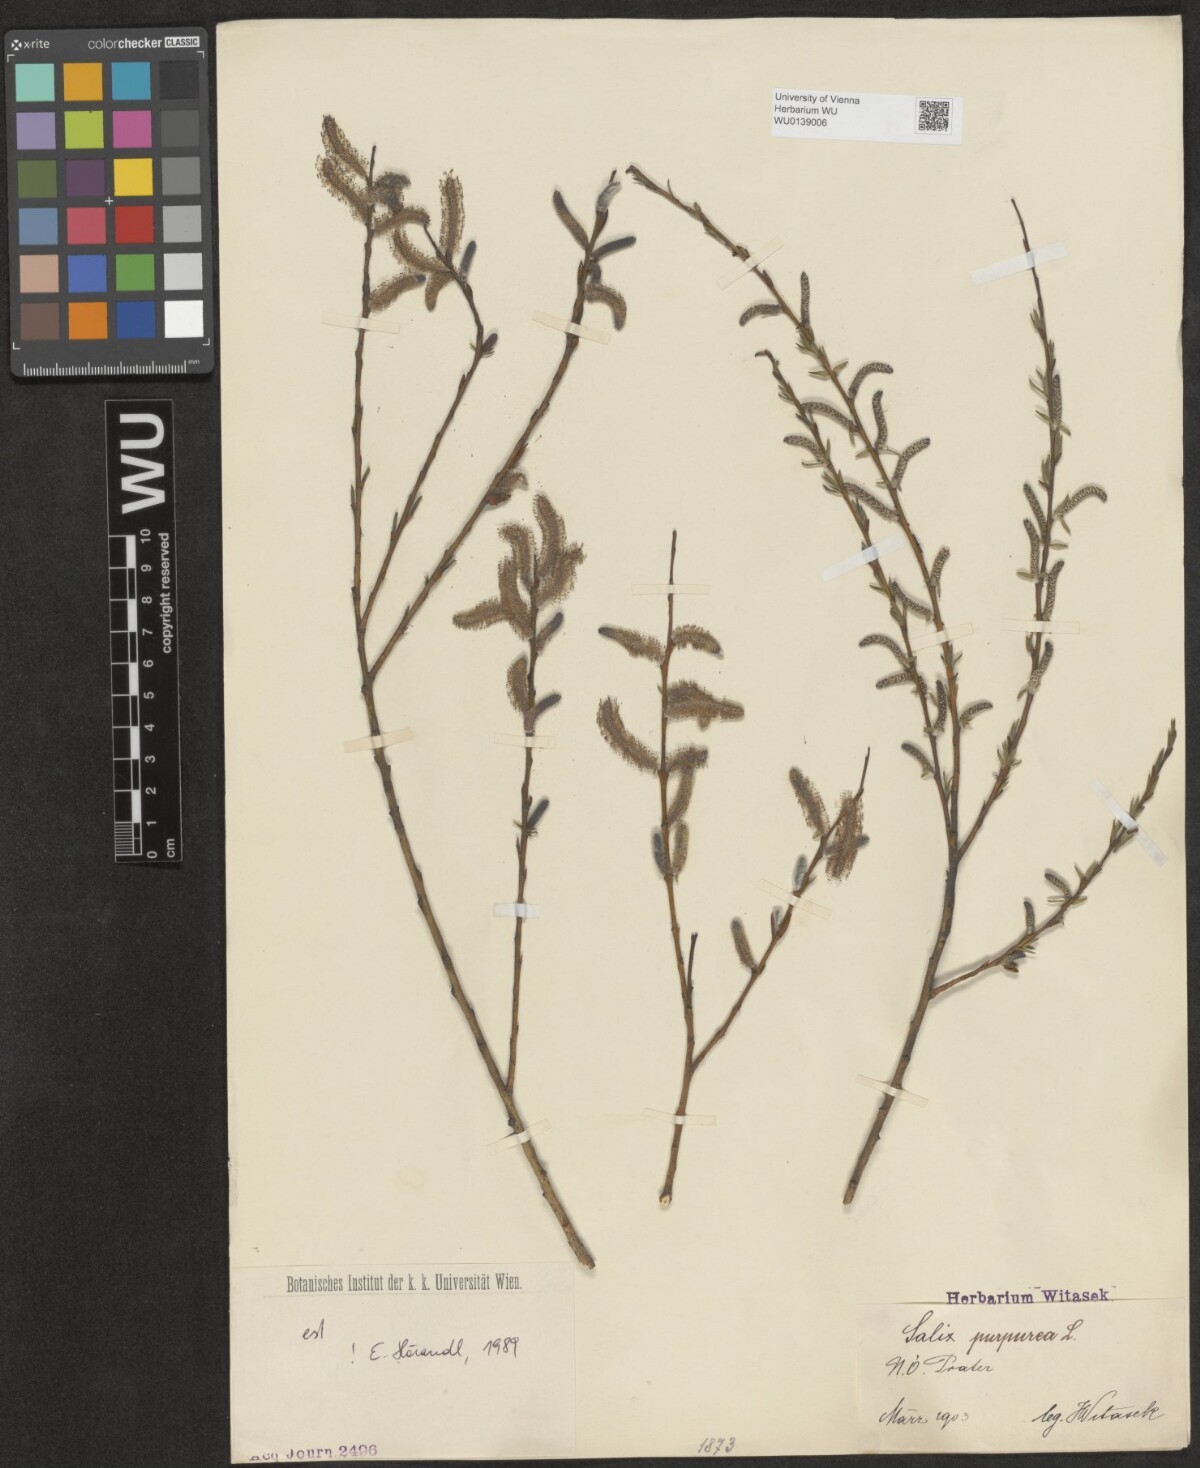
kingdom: Plantae
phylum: Tracheophyta
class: Magnoliopsida
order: Malpighiales
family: Salicaceae
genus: Salix
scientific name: Salix purpurea
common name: Purple willow
